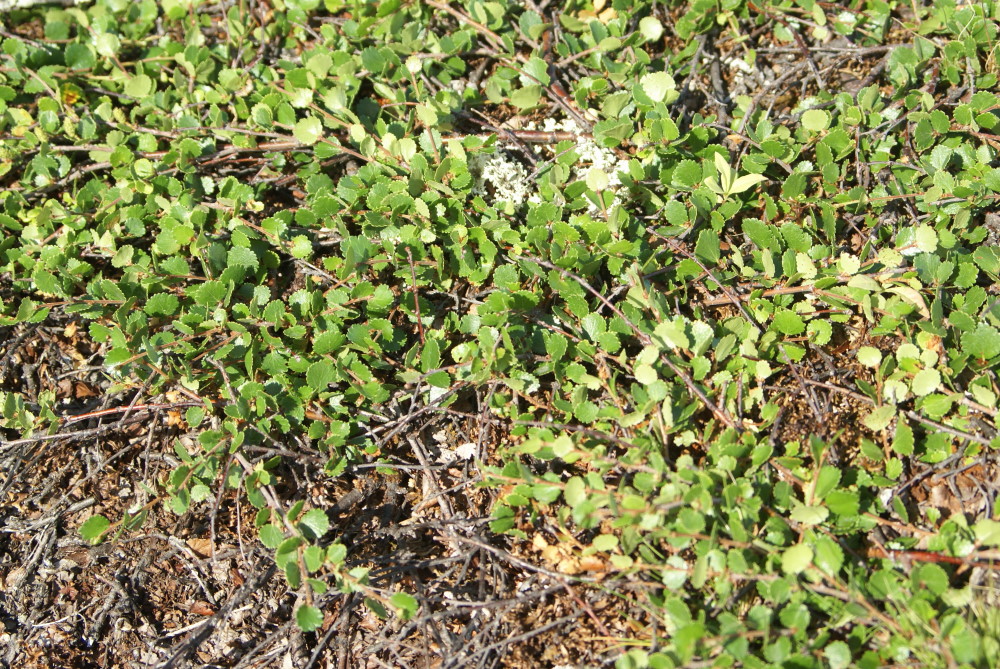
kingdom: Plantae
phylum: Tracheophyta
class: Magnoliopsida
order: Fagales
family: Betulaceae
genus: Betula
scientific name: Betula nana
